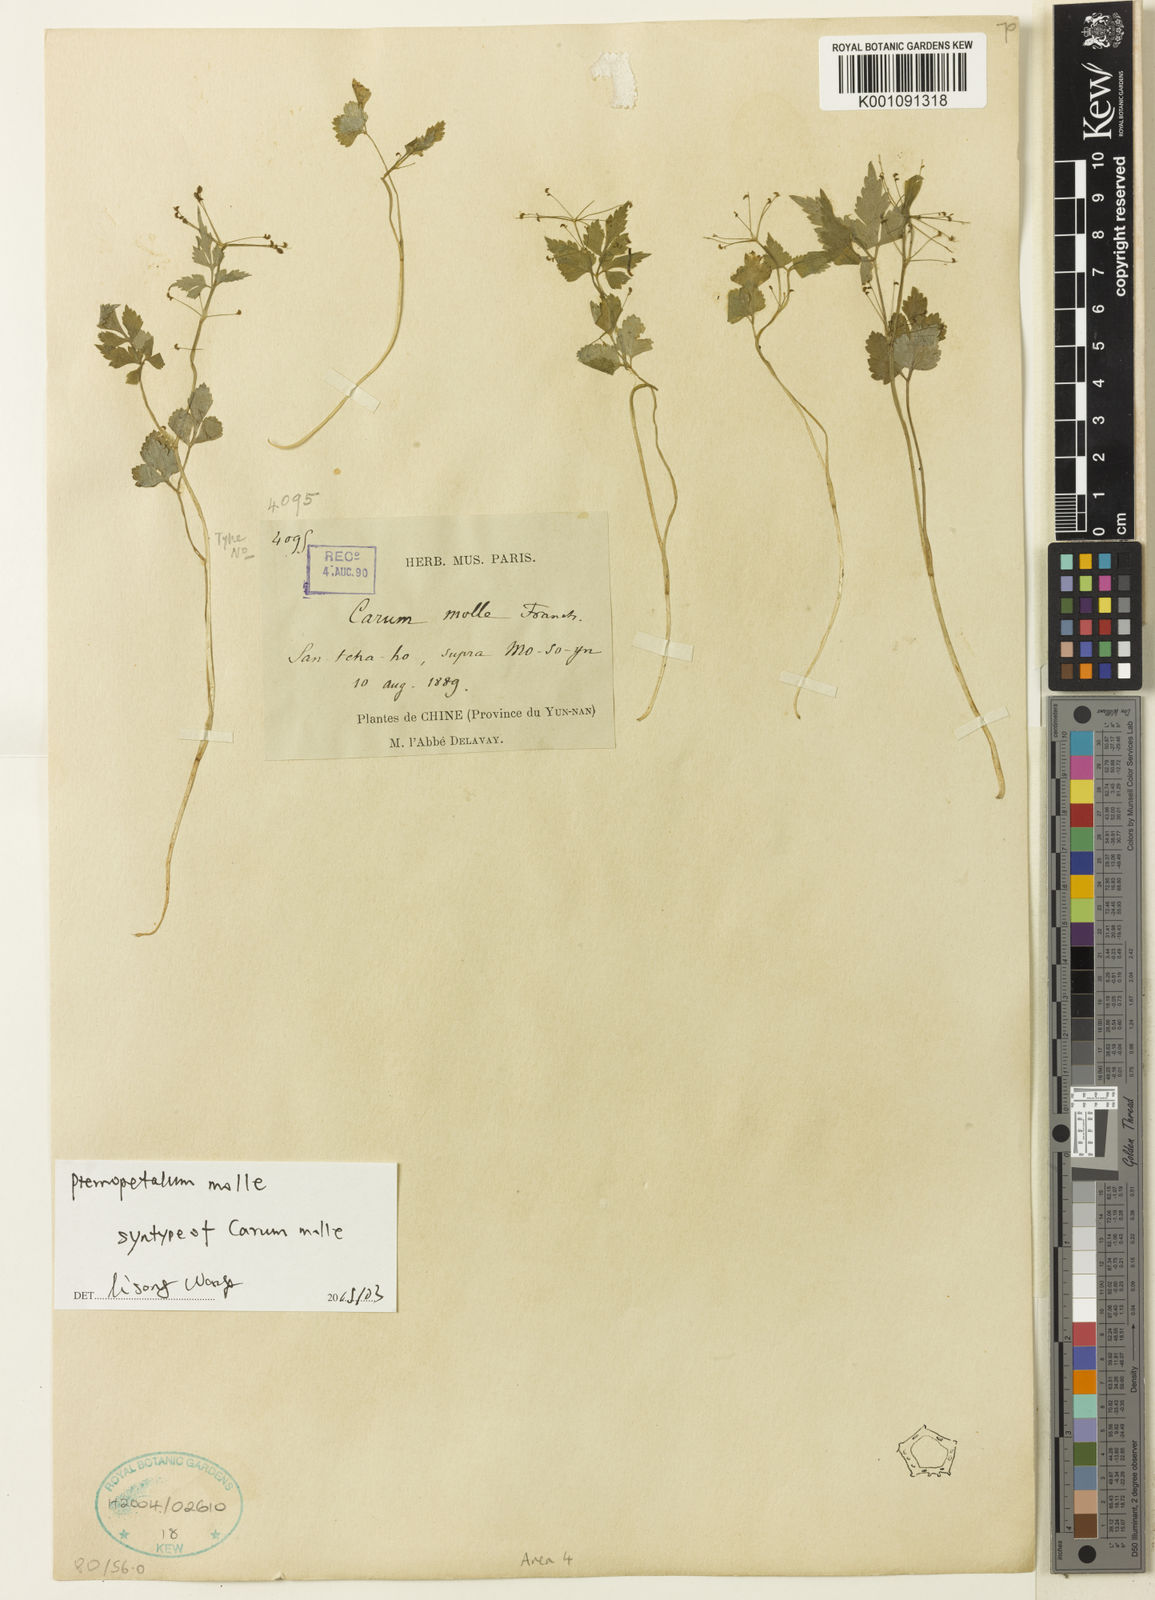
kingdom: Plantae
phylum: Tracheophyta
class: Magnoliopsida
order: Apiales
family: Apiaceae
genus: Pternopetalum
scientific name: Pternopetalum molle
